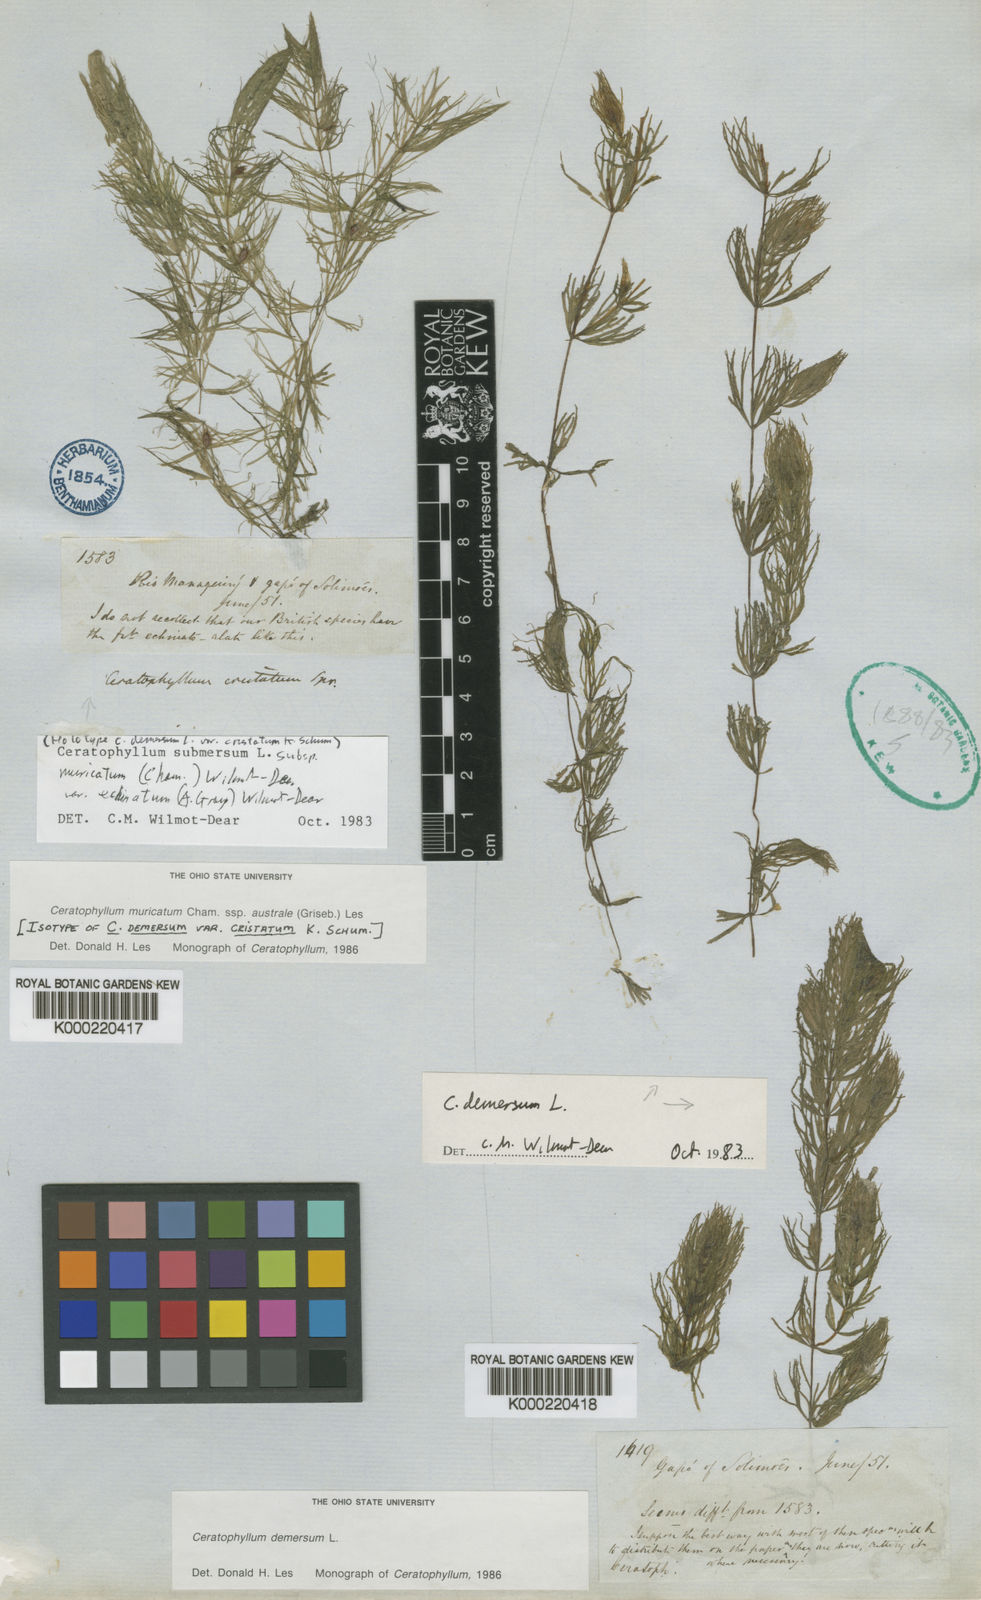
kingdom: Plantae
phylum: Tracheophyta
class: Magnoliopsida
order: Ceratophyllales
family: Ceratophyllaceae
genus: Ceratophyllum
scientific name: Ceratophyllum echinatum
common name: Prickly coontail
